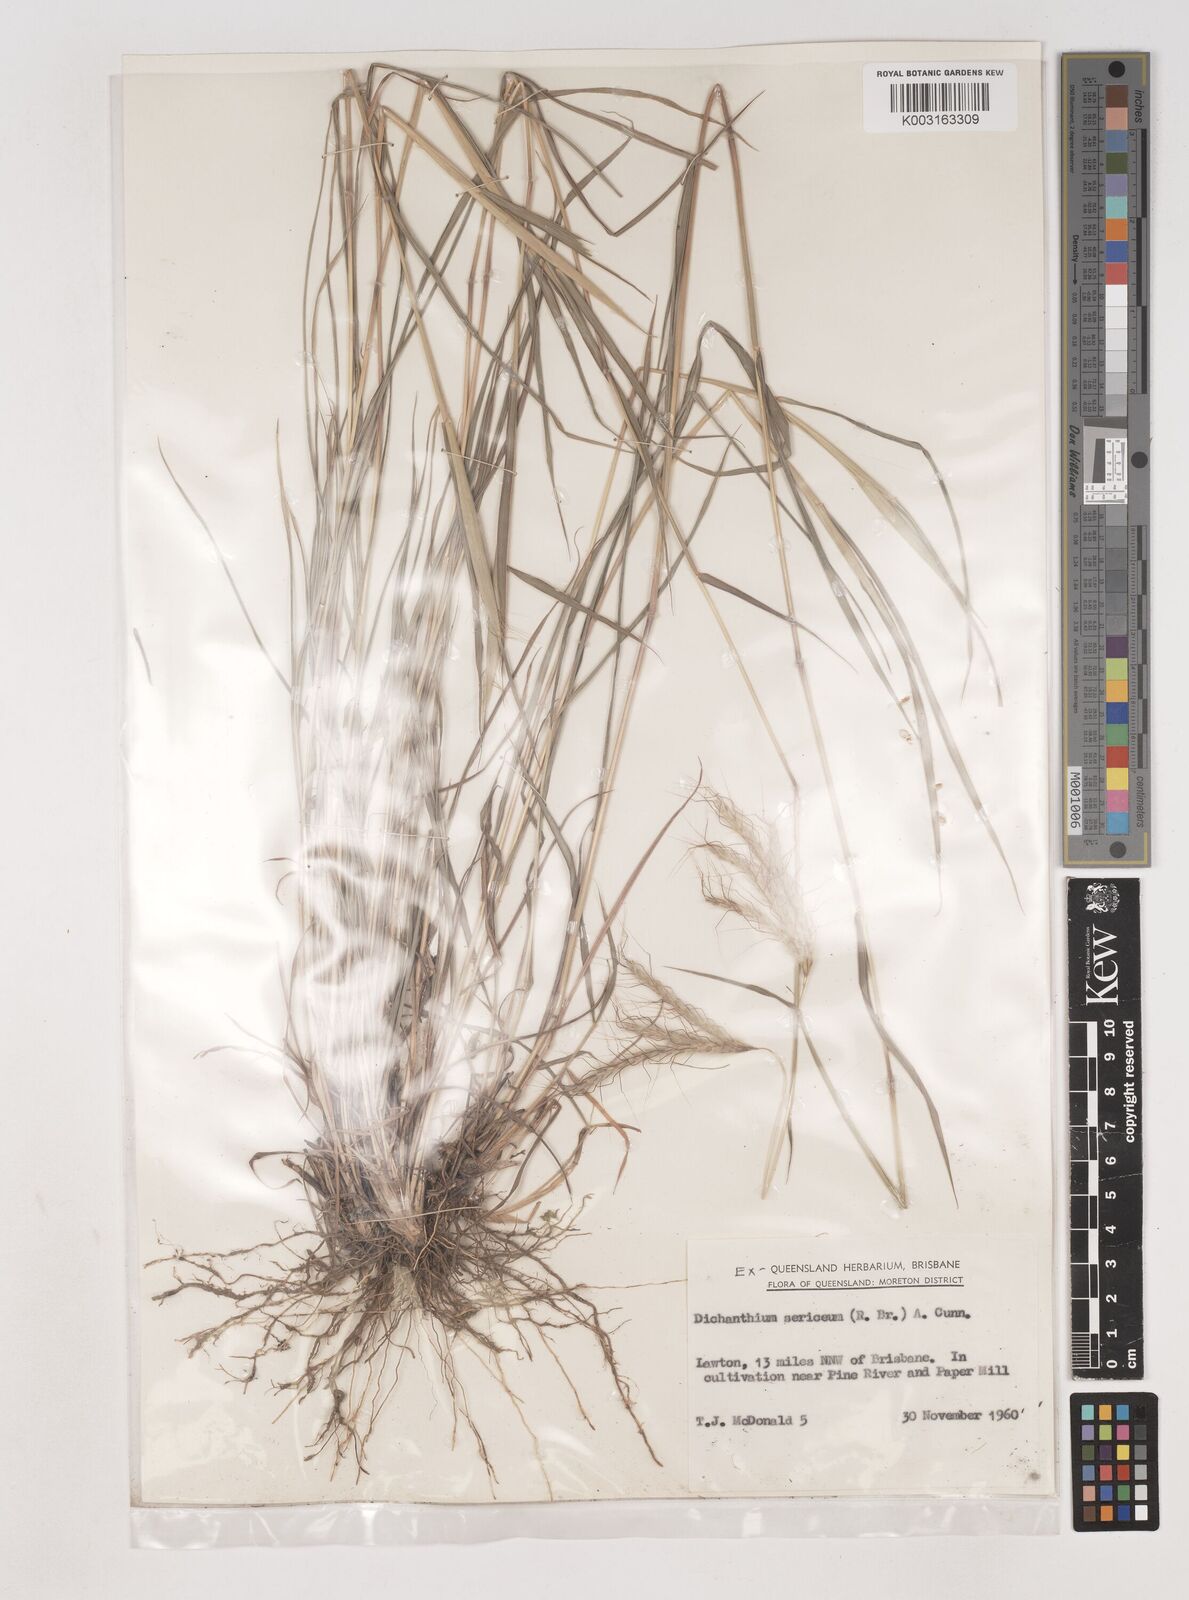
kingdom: Plantae
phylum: Tracheophyta
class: Liliopsida
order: Poales
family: Poaceae
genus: Dichanthium
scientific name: Dichanthium sericeum
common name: Silky bluestem
